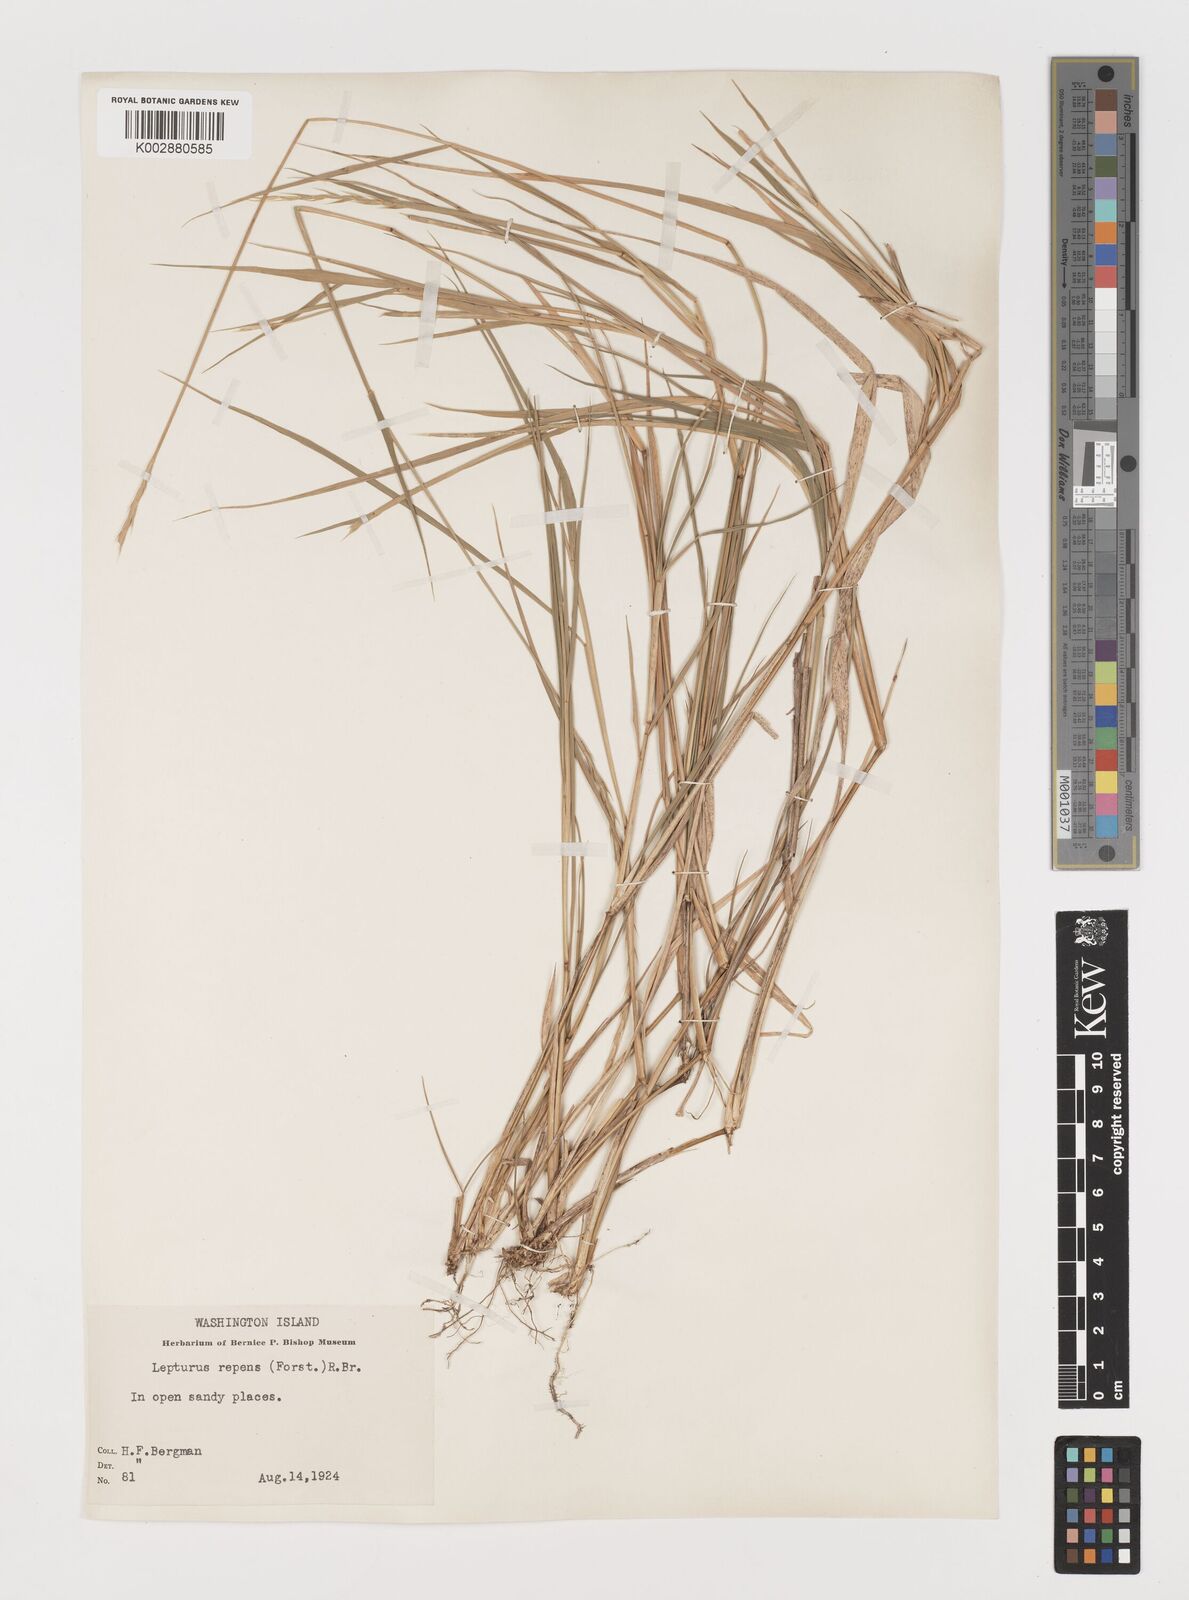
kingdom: Plantae
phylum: Tracheophyta
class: Liliopsida
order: Poales
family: Poaceae
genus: Lepturus
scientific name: Lepturus repens
